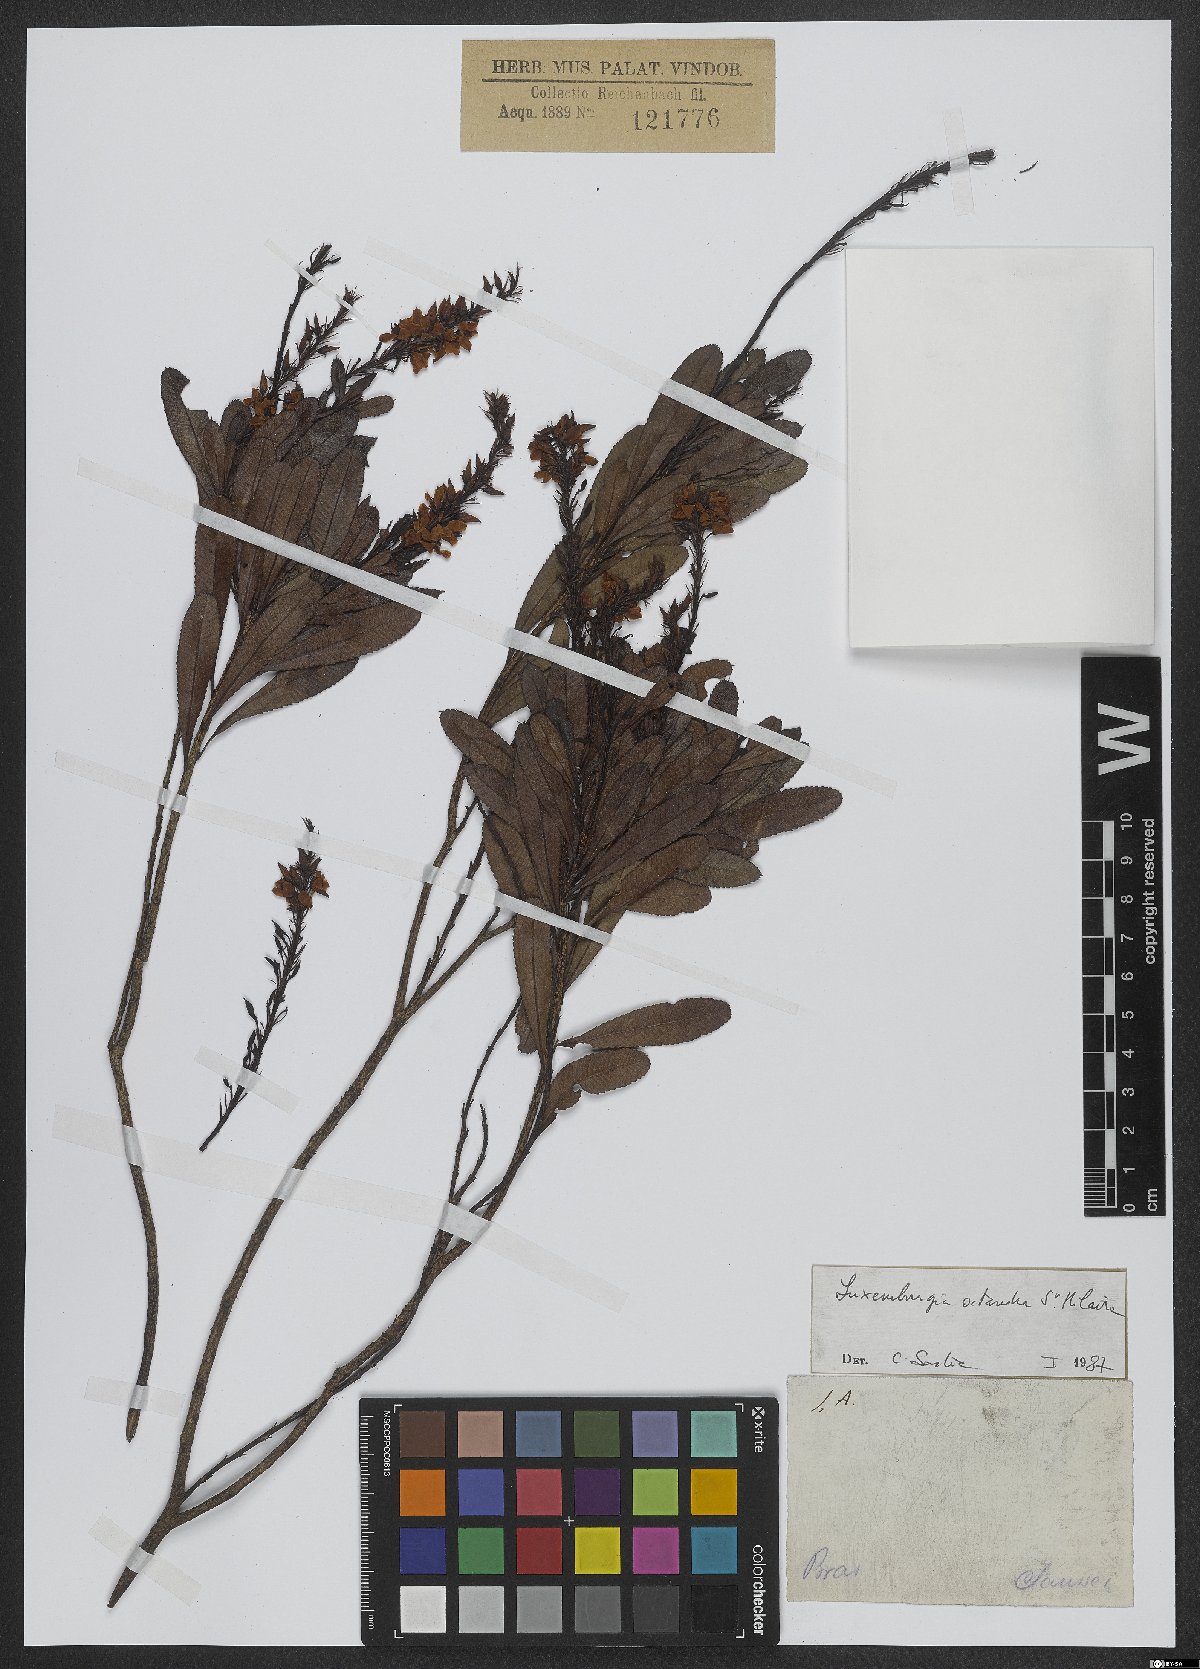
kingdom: Plantae
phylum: Tracheophyta
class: Magnoliopsida
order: Malpighiales
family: Ochnaceae
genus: Luxemburgia
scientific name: Luxemburgia octandra
